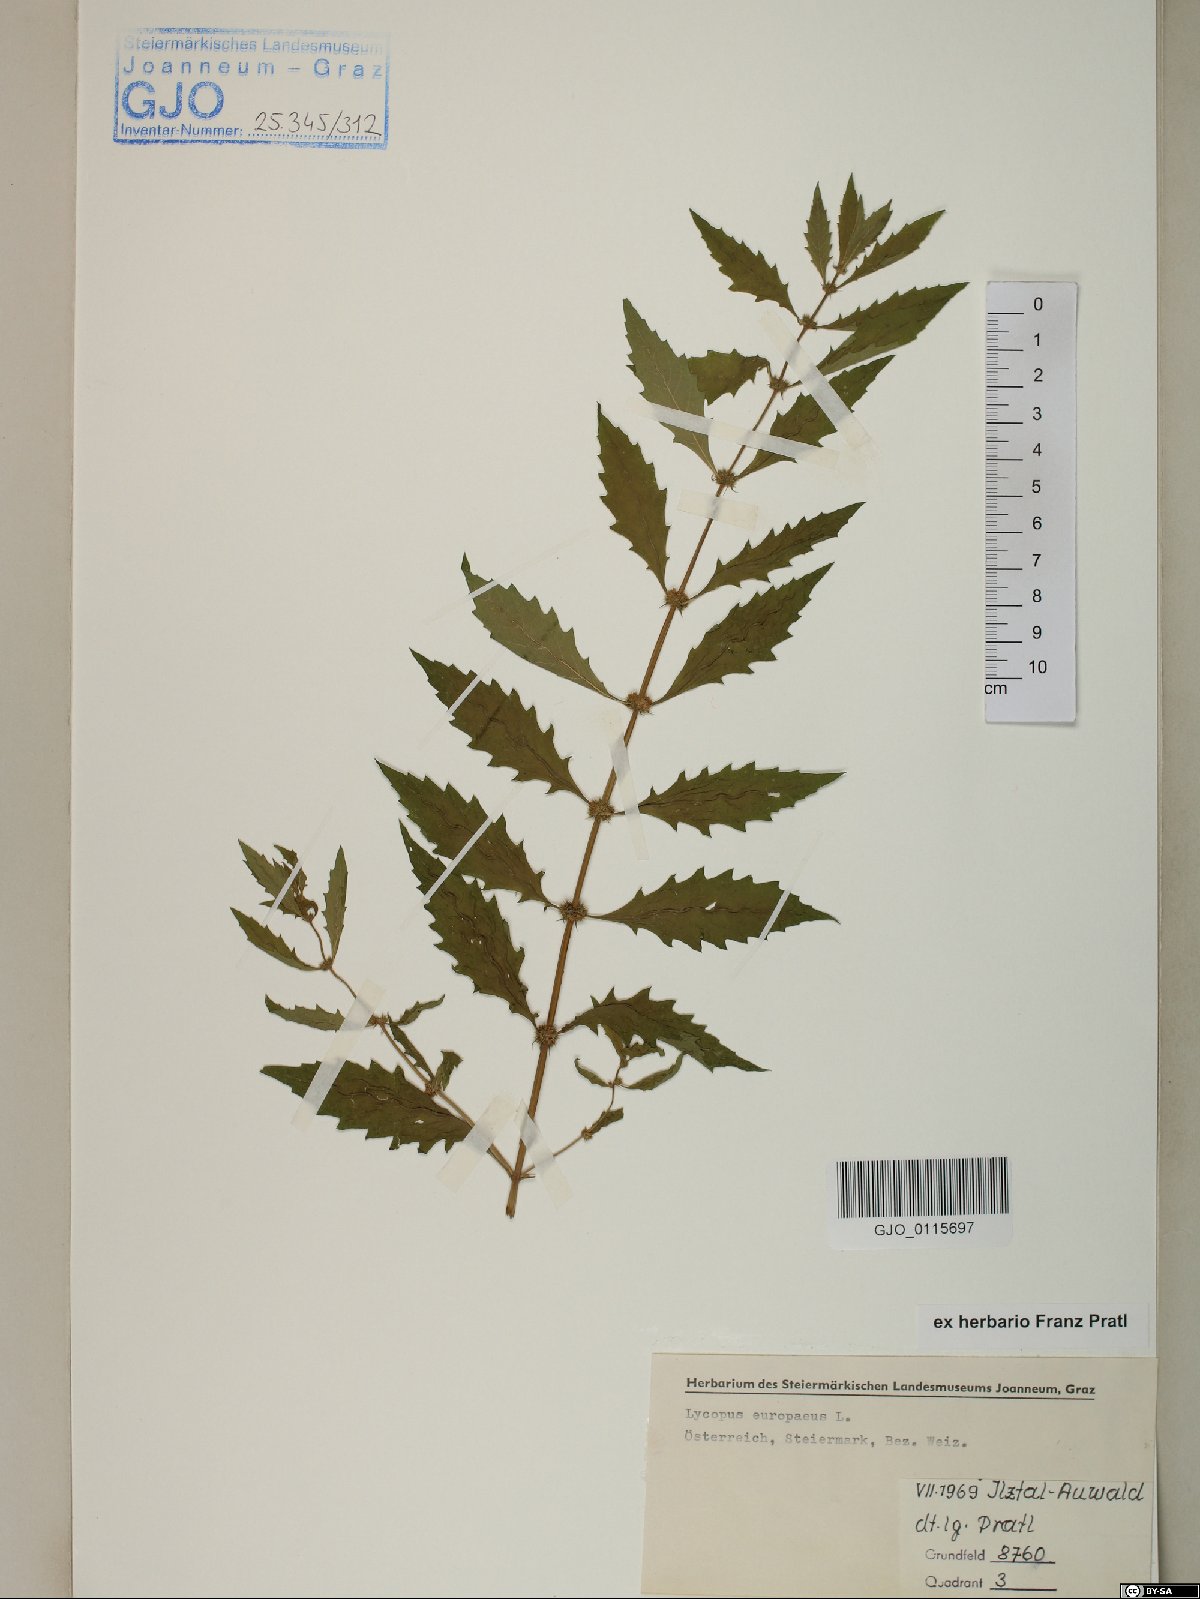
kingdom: Plantae
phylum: Tracheophyta
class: Magnoliopsida
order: Lamiales
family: Lamiaceae
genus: Lycopus
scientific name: Lycopus europaeus
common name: European bugleweed
